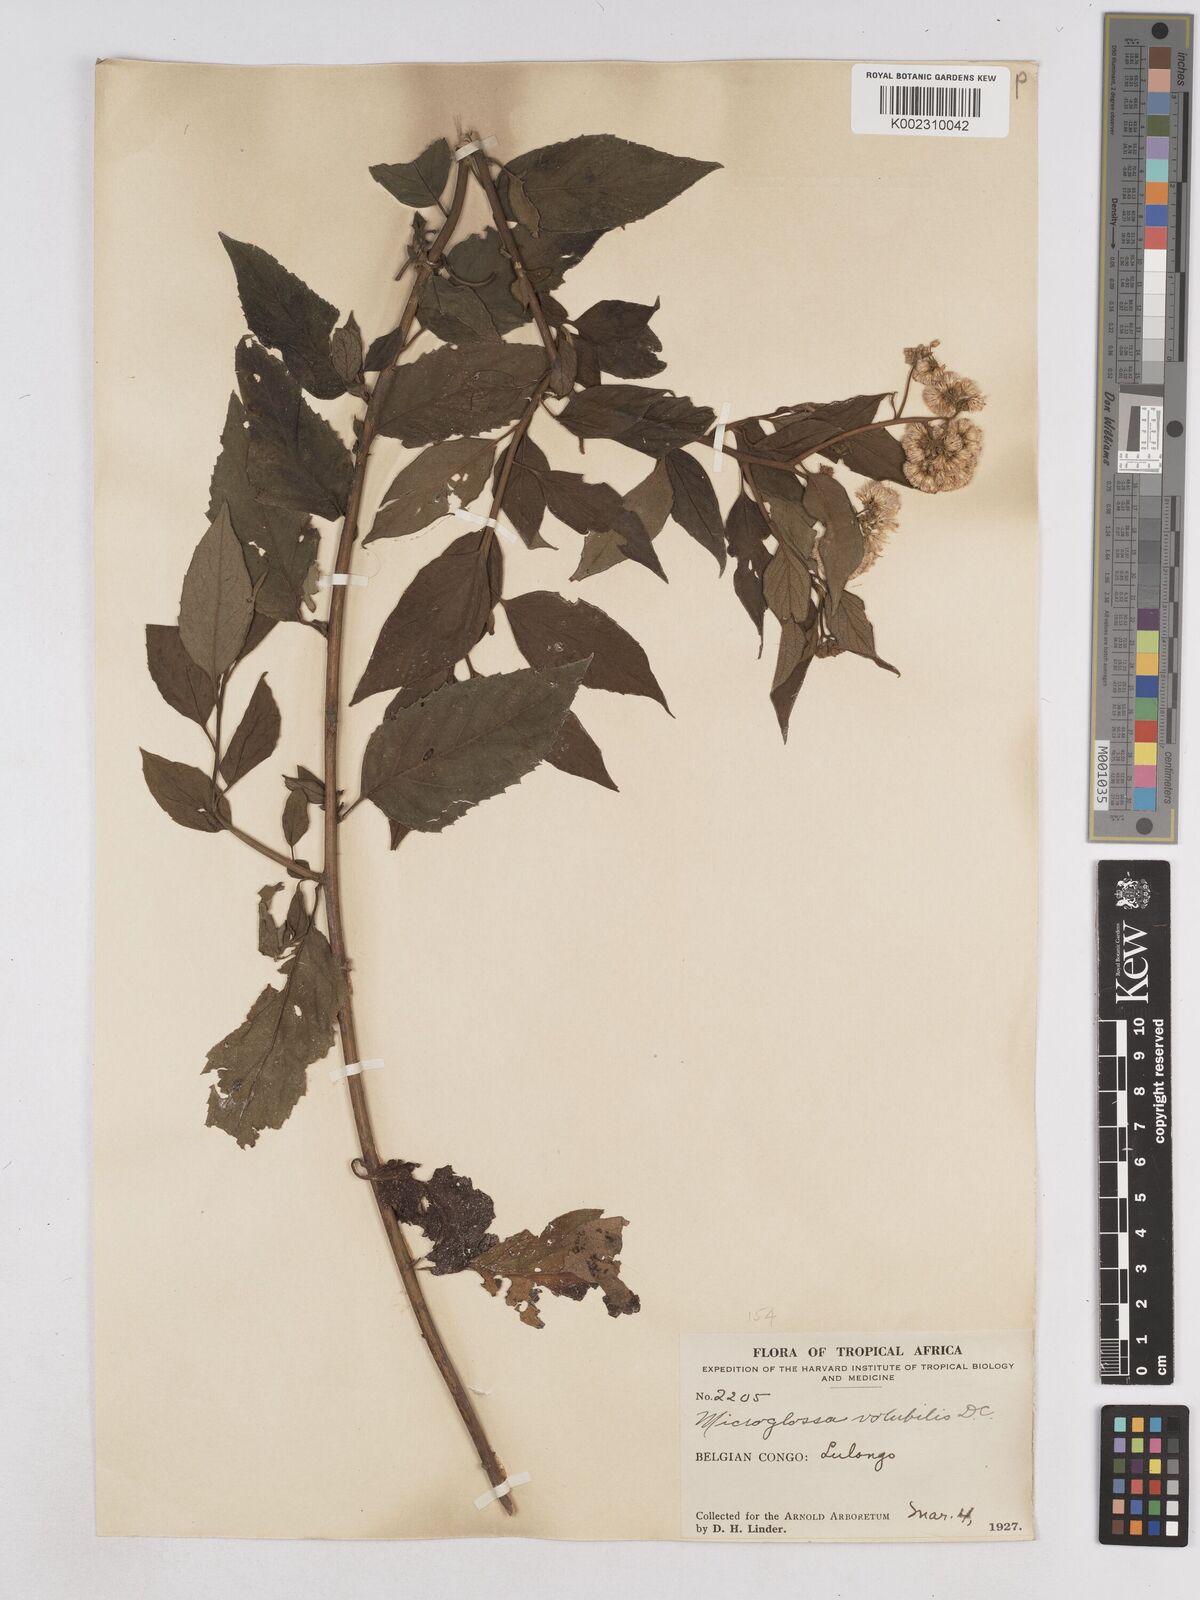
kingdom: Plantae
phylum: Tracheophyta
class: Magnoliopsida
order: Asterales
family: Asteraceae
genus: Microglossa
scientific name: Microglossa pyrifolia
